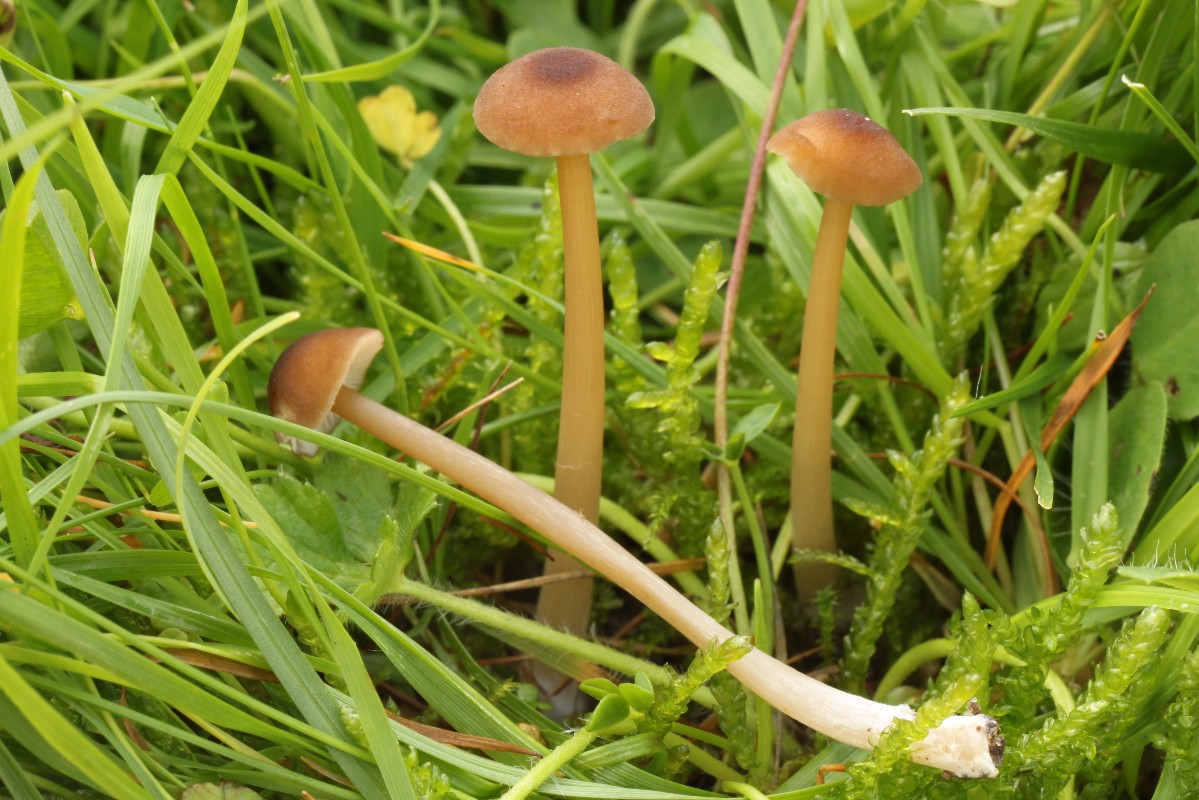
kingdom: Fungi
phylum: Basidiomycota
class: Agaricomycetes
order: Agaricales
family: Entolomataceae
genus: Entoloma
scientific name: Entoloma
